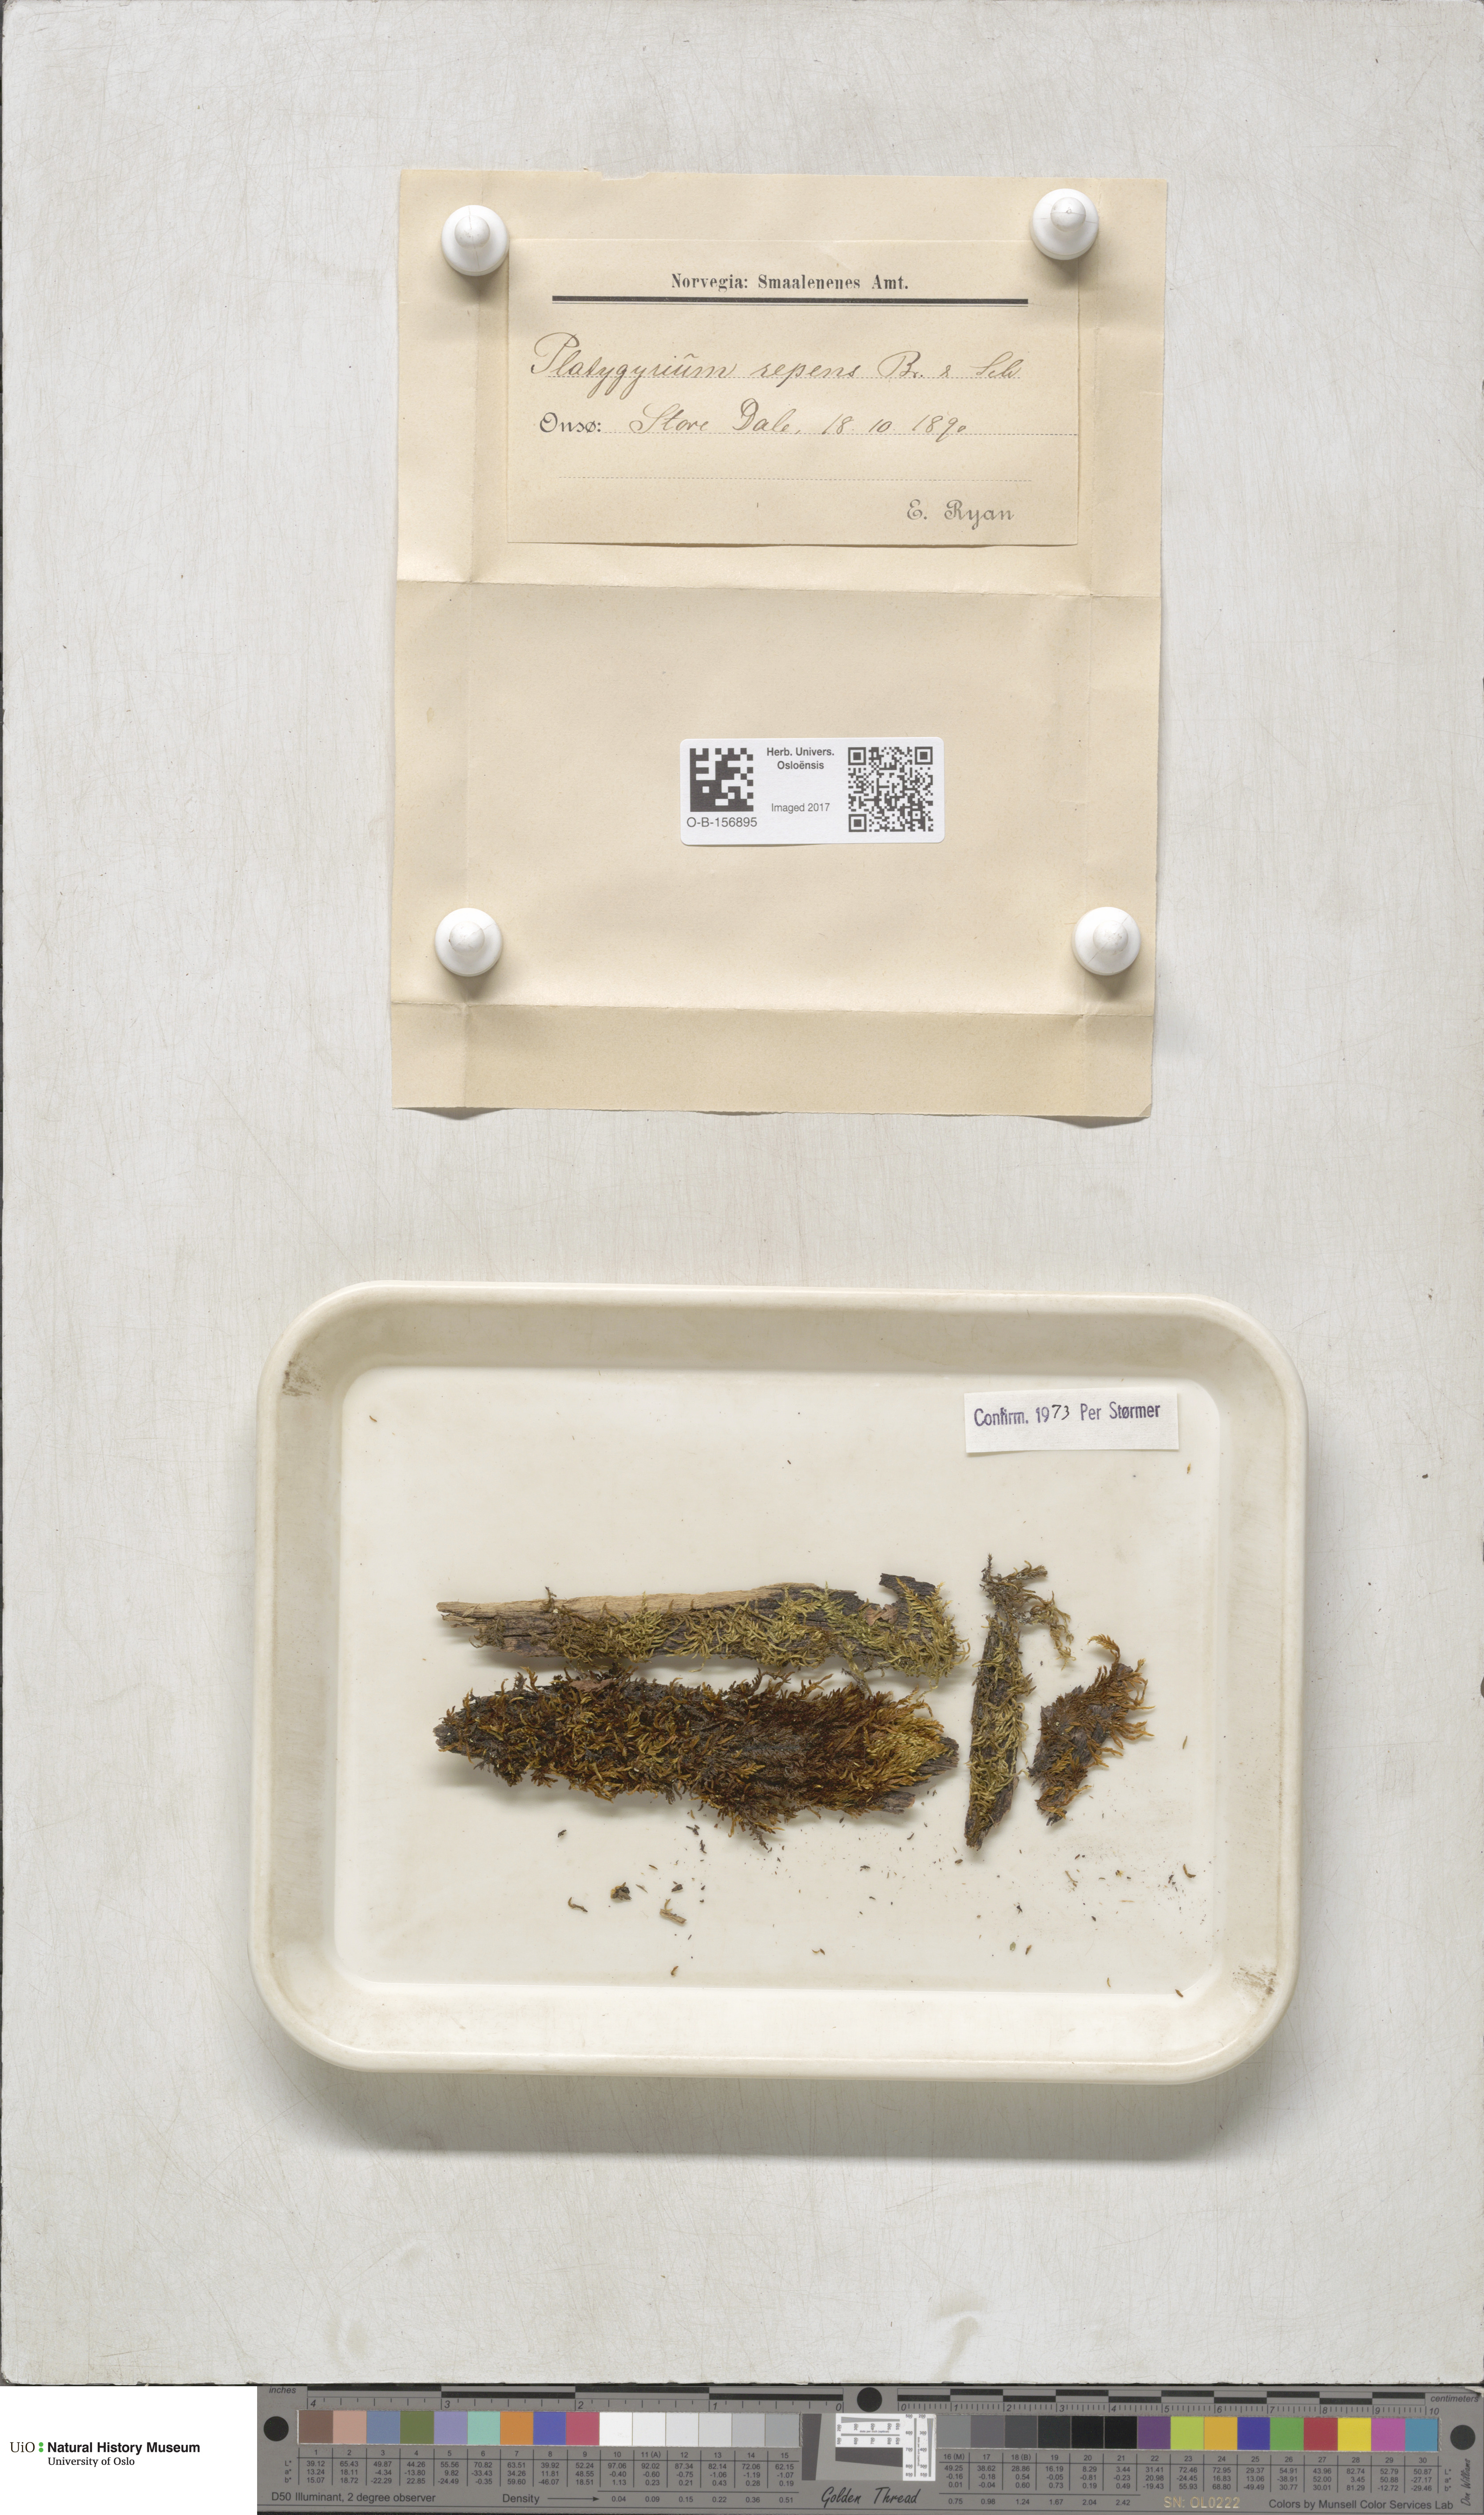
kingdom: Plantae
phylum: Bryophyta
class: Bryopsida
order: Hypnales
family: Pylaisiadelphaceae
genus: Platygyrium
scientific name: Platygyrium repens
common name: Flat-brocade moss
